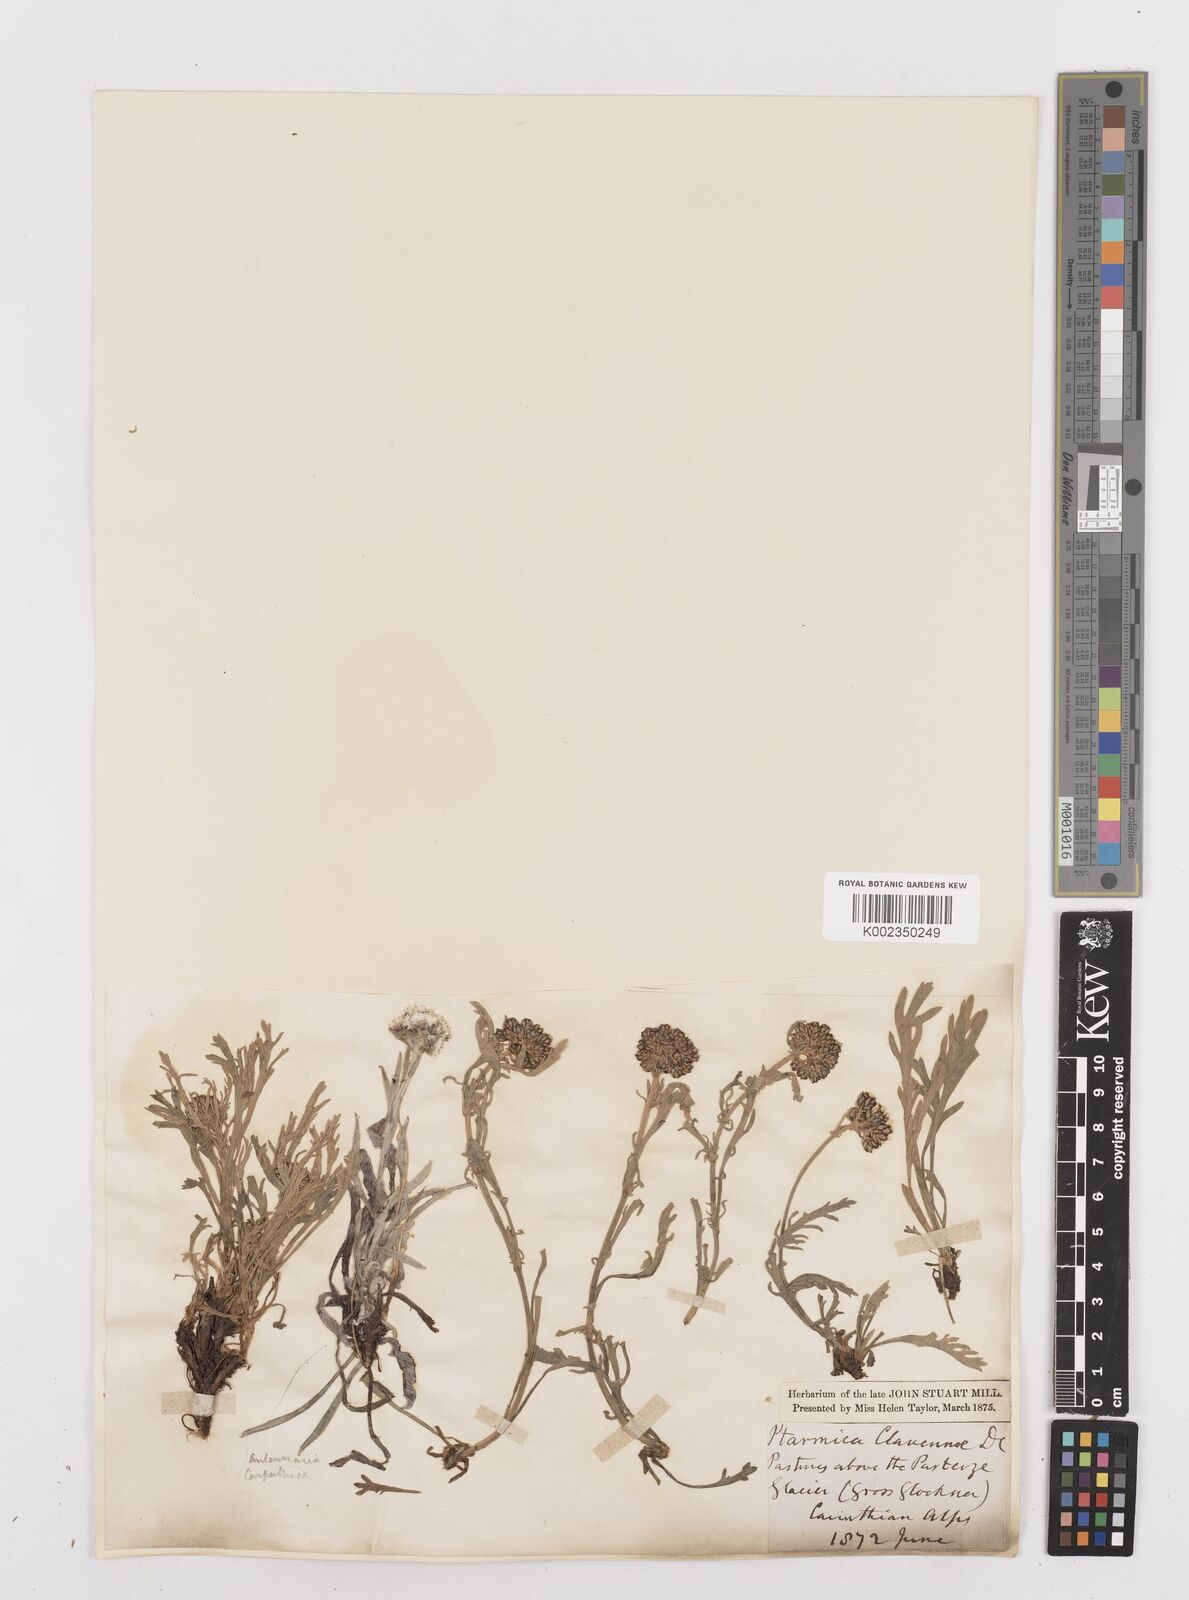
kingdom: Plantae
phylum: Tracheophyta
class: Magnoliopsida
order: Asterales
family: Asteraceae
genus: Achillea
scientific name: Achillea clavennae
